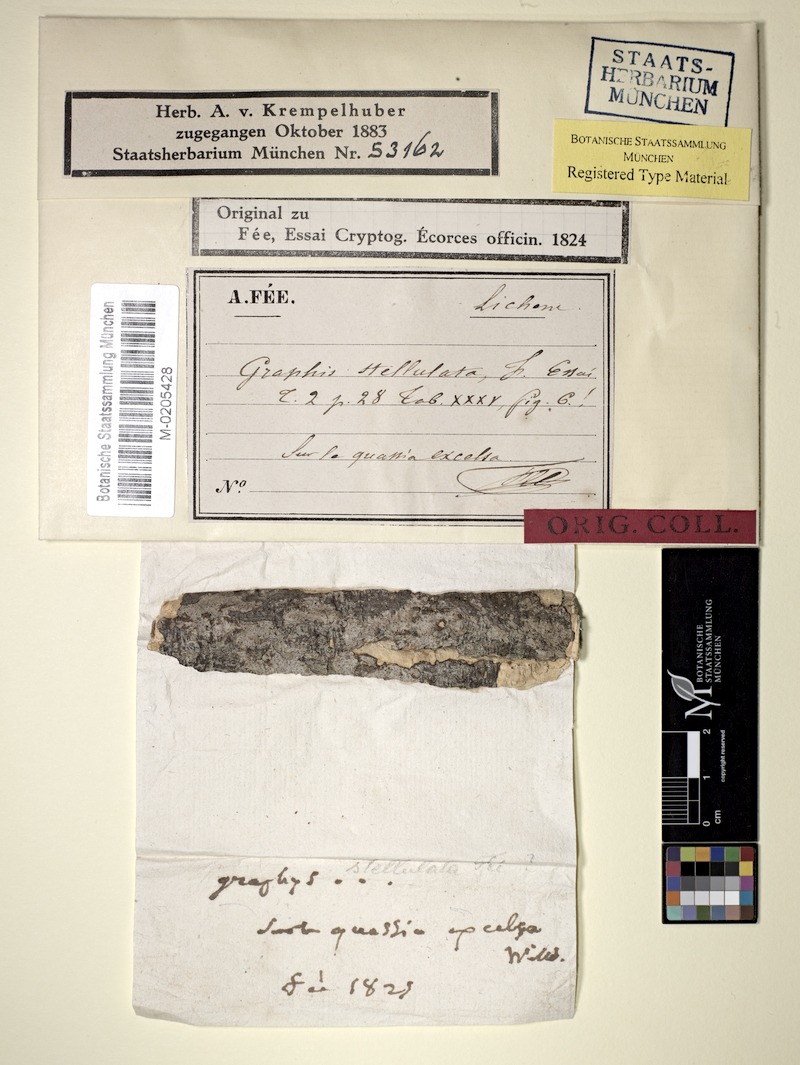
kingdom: Fungi
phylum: Ascomycota
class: Arthoniomycetes
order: Arthoniales
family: Roccellaceae
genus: Enterographa
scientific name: Enterographa
